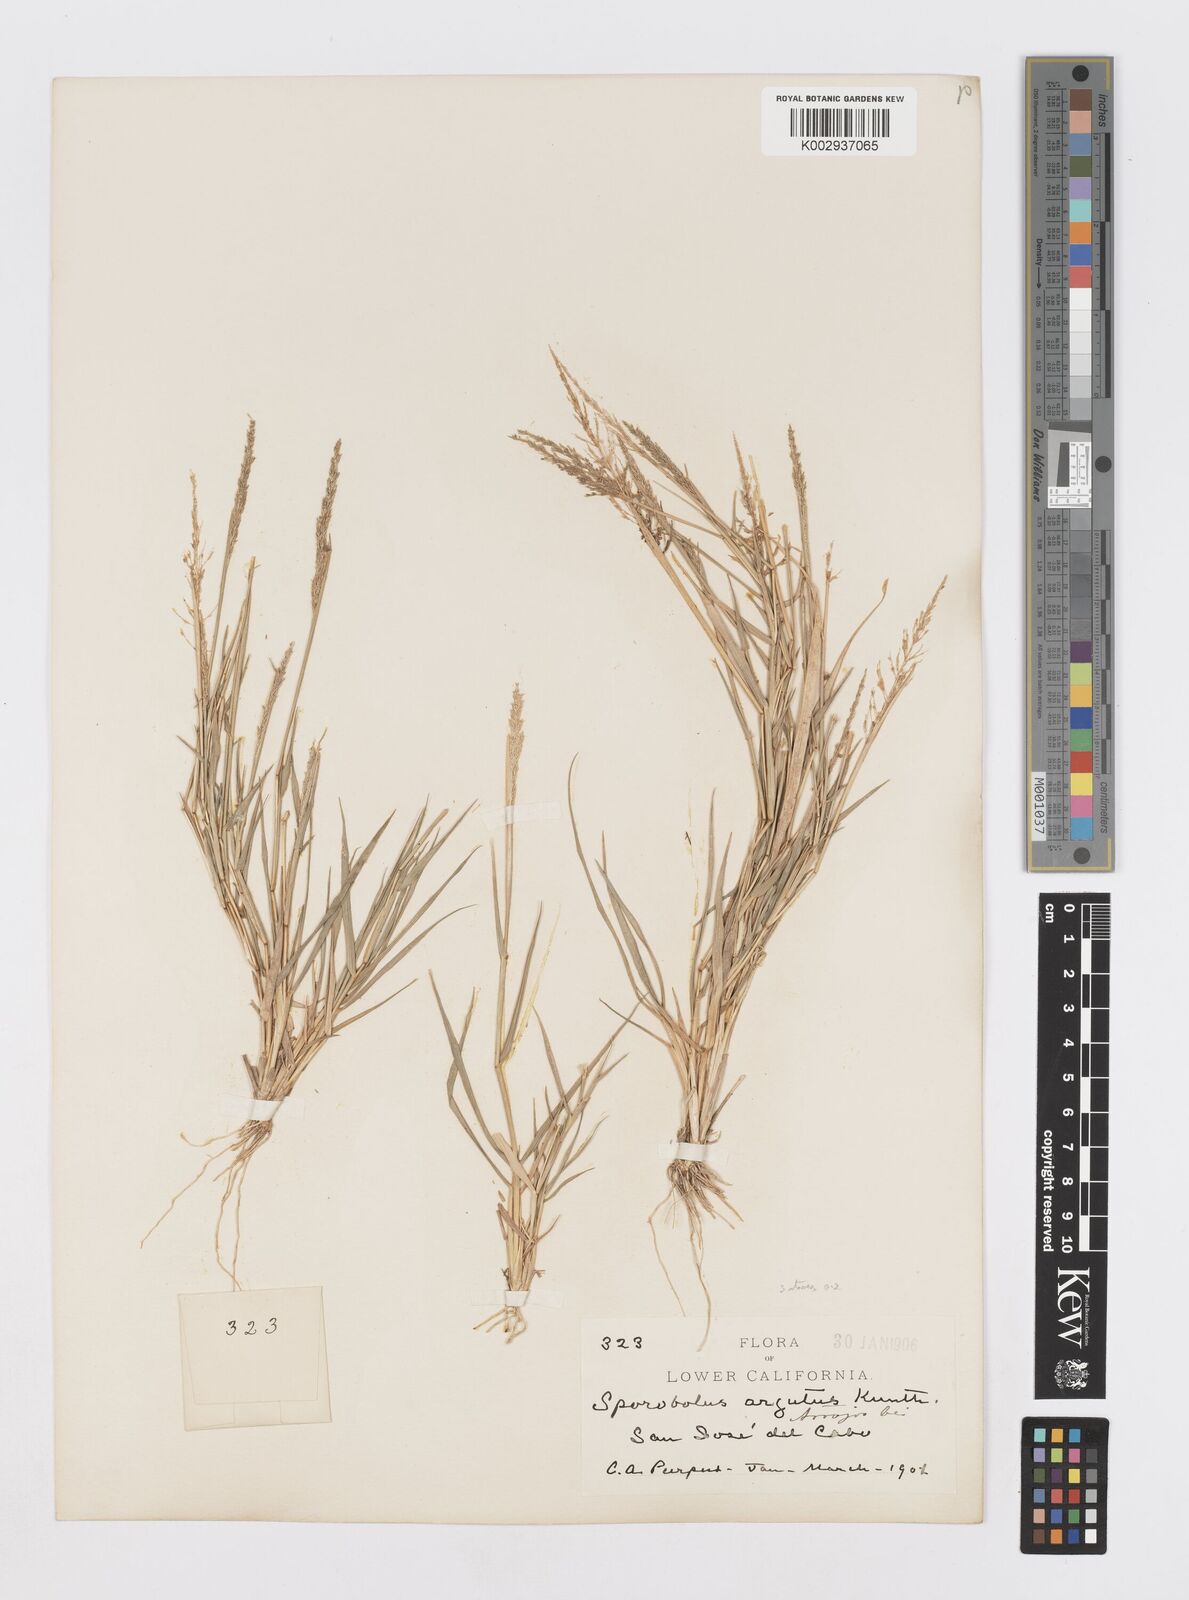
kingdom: Plantae
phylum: Tracheophyta
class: Liliopsida
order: Poales
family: Poaceae
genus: Sporobolus
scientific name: Sporobolus pyramidatus
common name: Whorled dropseed
